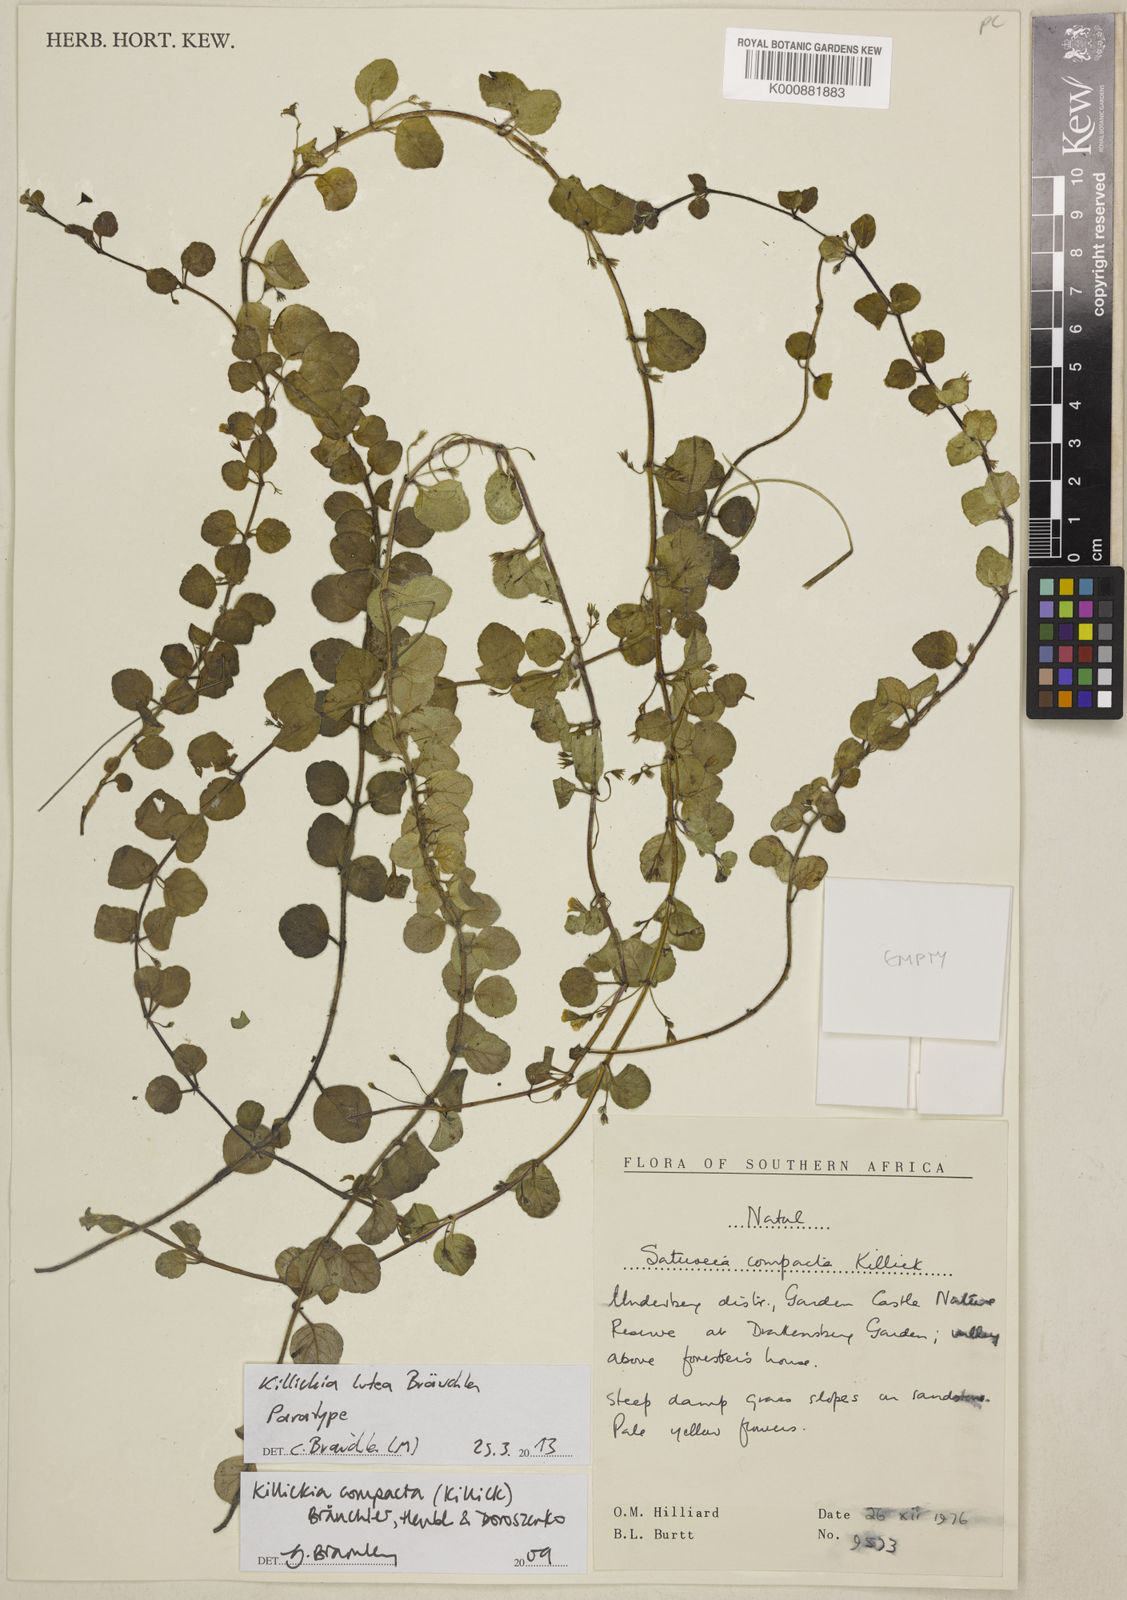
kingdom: Plantae
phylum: Tracheophyta
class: Magnoliopsida
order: Lamiales
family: Lamiaceae
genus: Killickia
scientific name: Killickia
